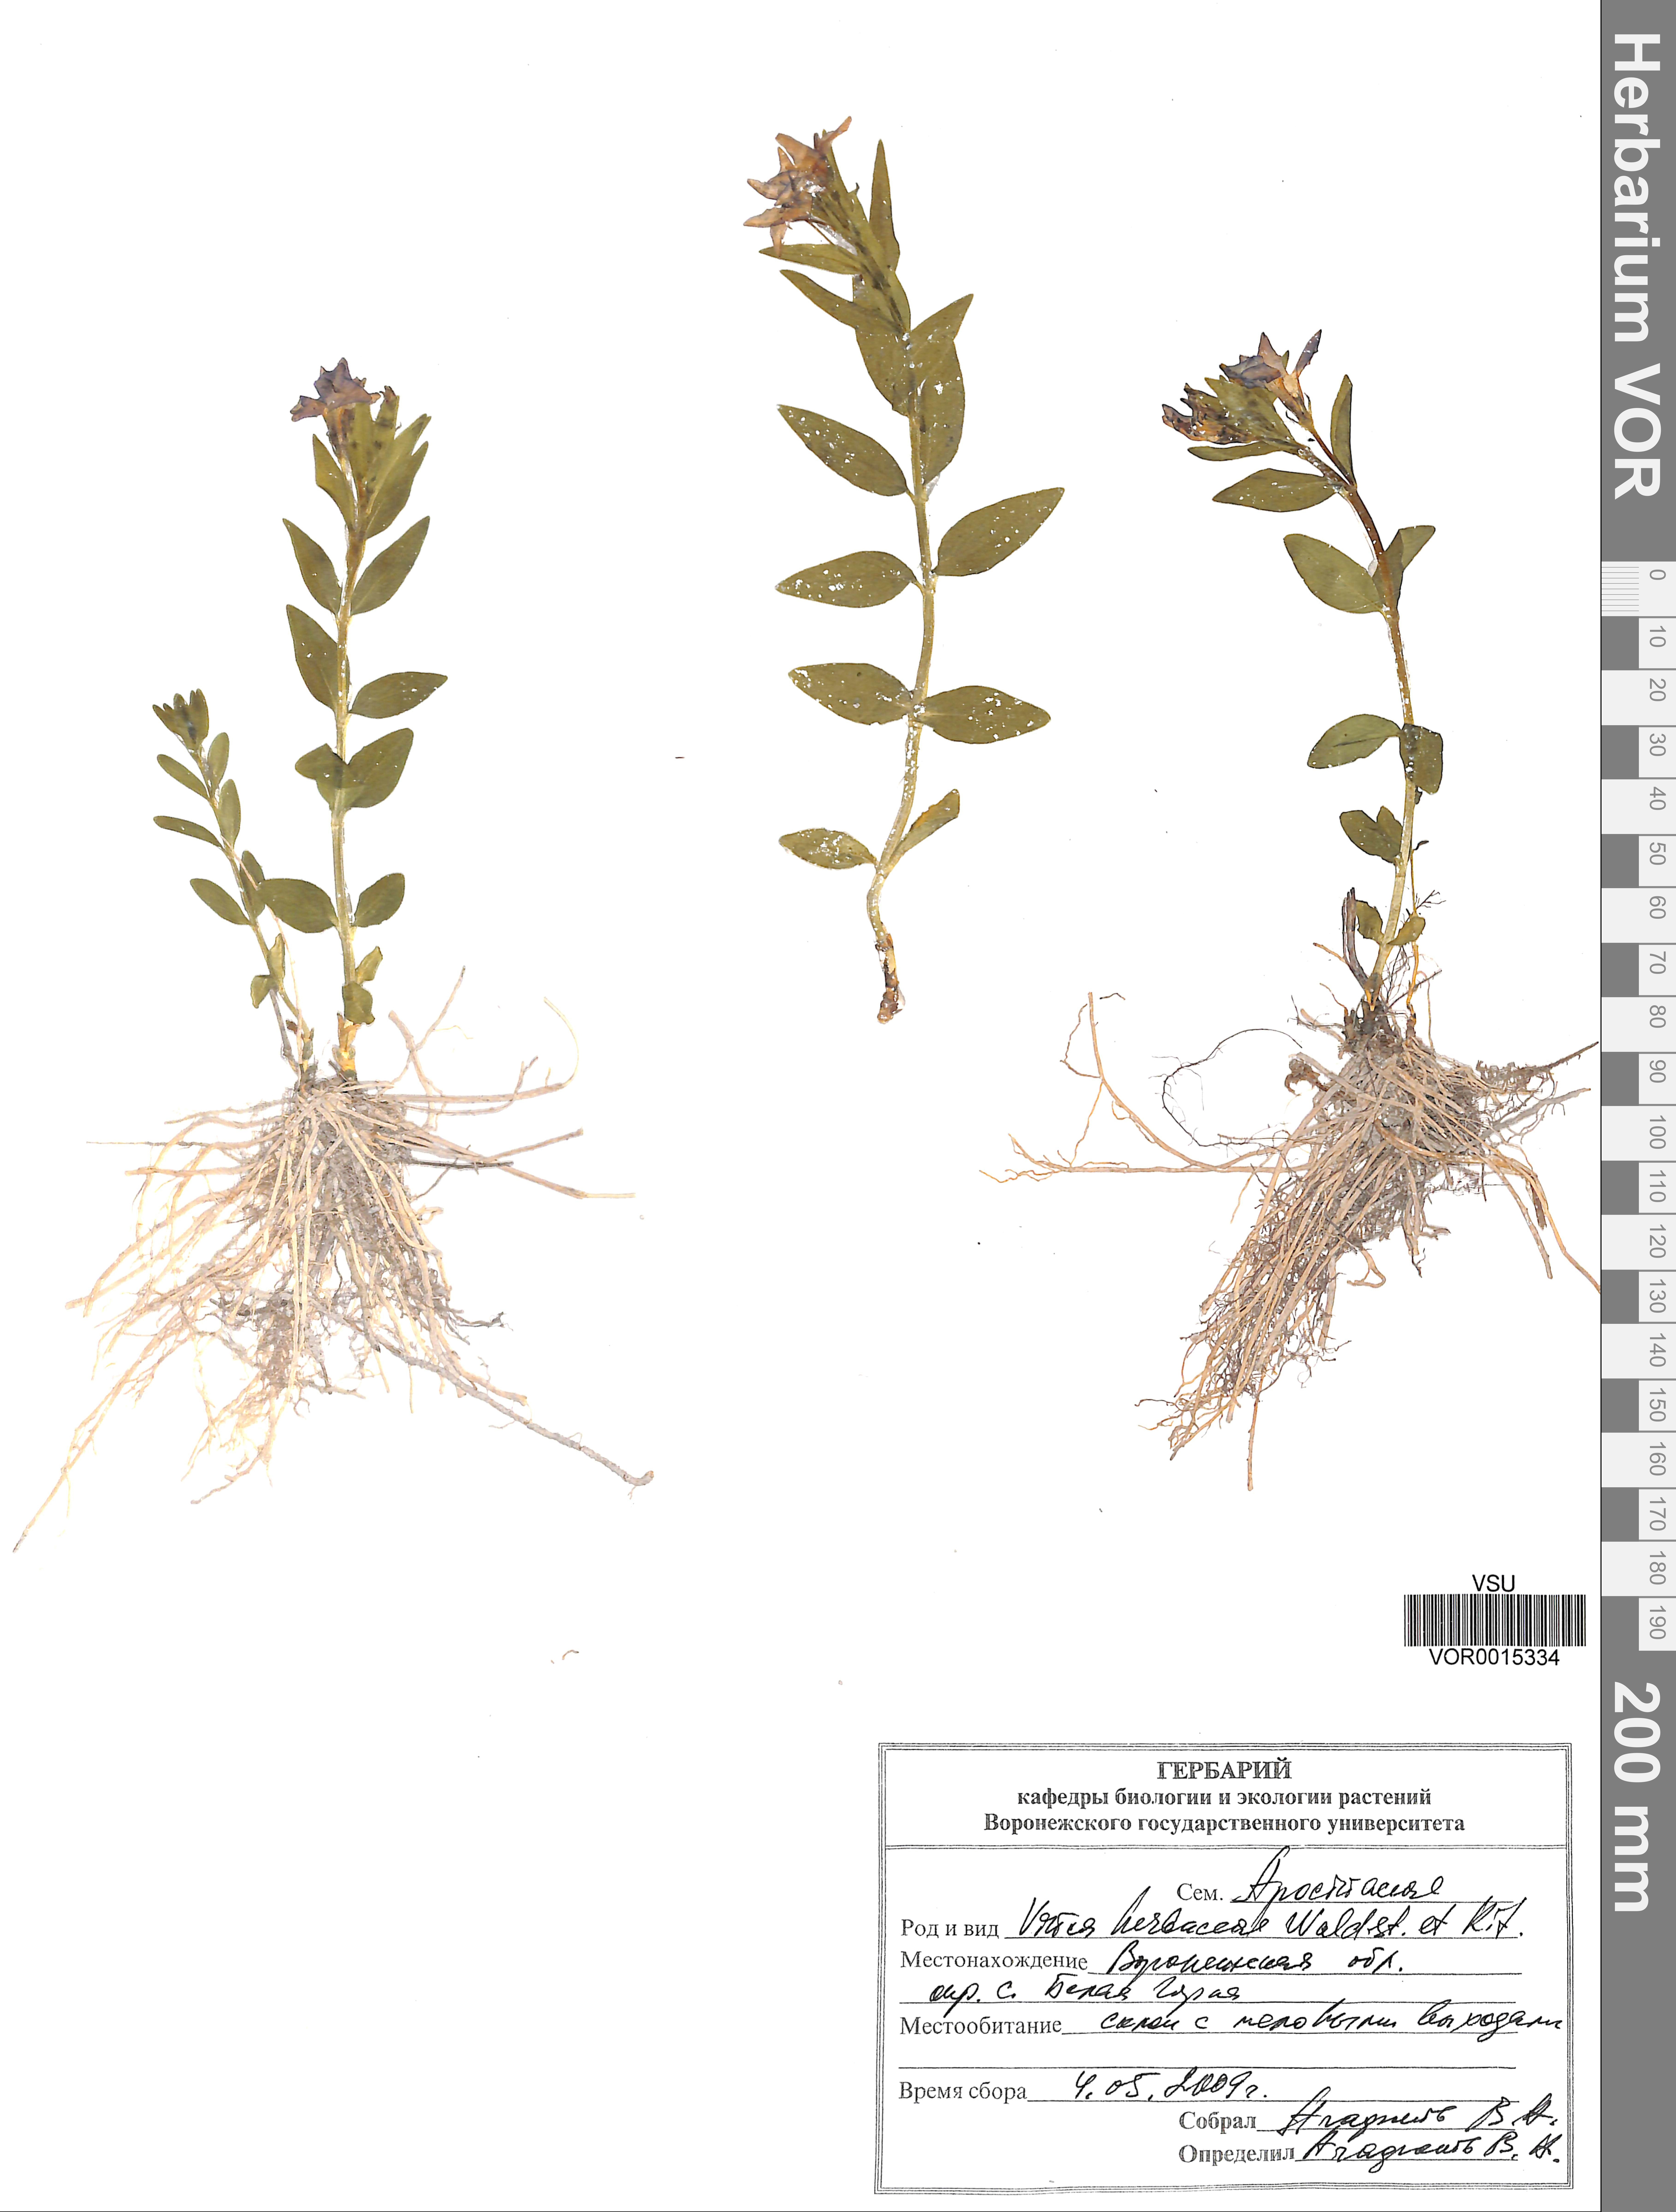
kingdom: Plantae
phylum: Tracheophyta
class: Magnoliopsida
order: Gentianales
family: Apocynaceae
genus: Vinca
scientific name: Vinca herbacea
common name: Herbaceous periwinkle
